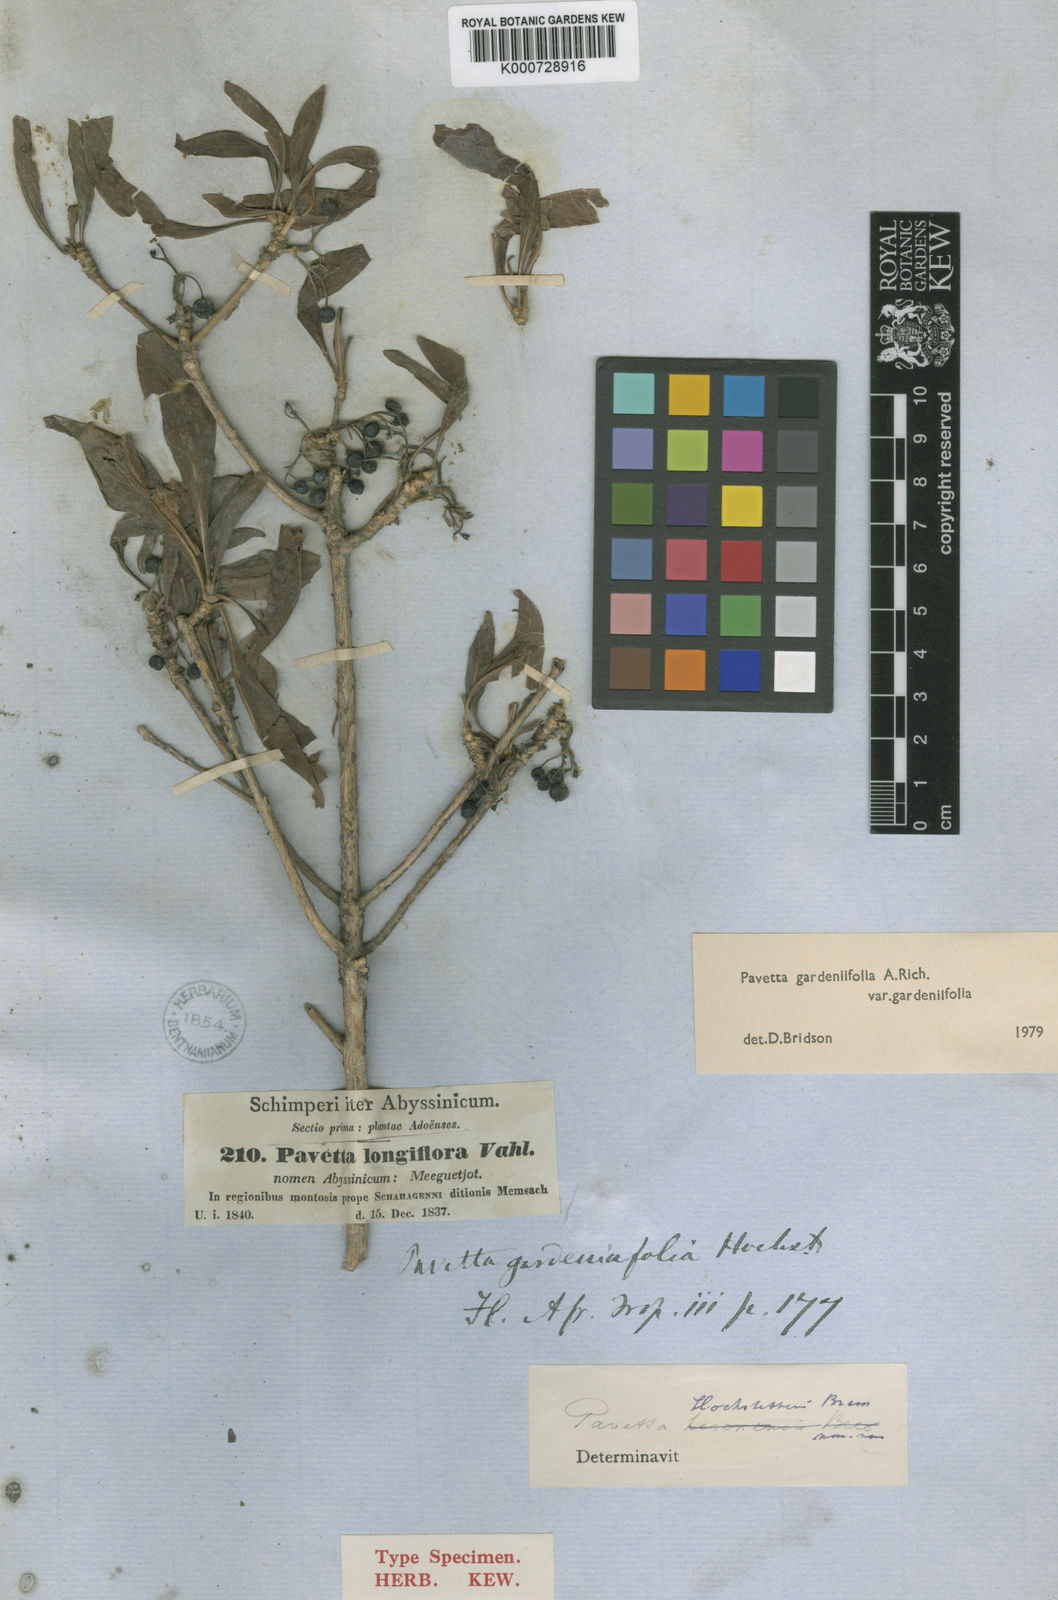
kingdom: Plantae
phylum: Tracheophyta
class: Magnoliopsida
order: Gentianales
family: Rubiaceae
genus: Pavetta
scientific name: Pavetta gardeniifolia
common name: Common brides-bush
